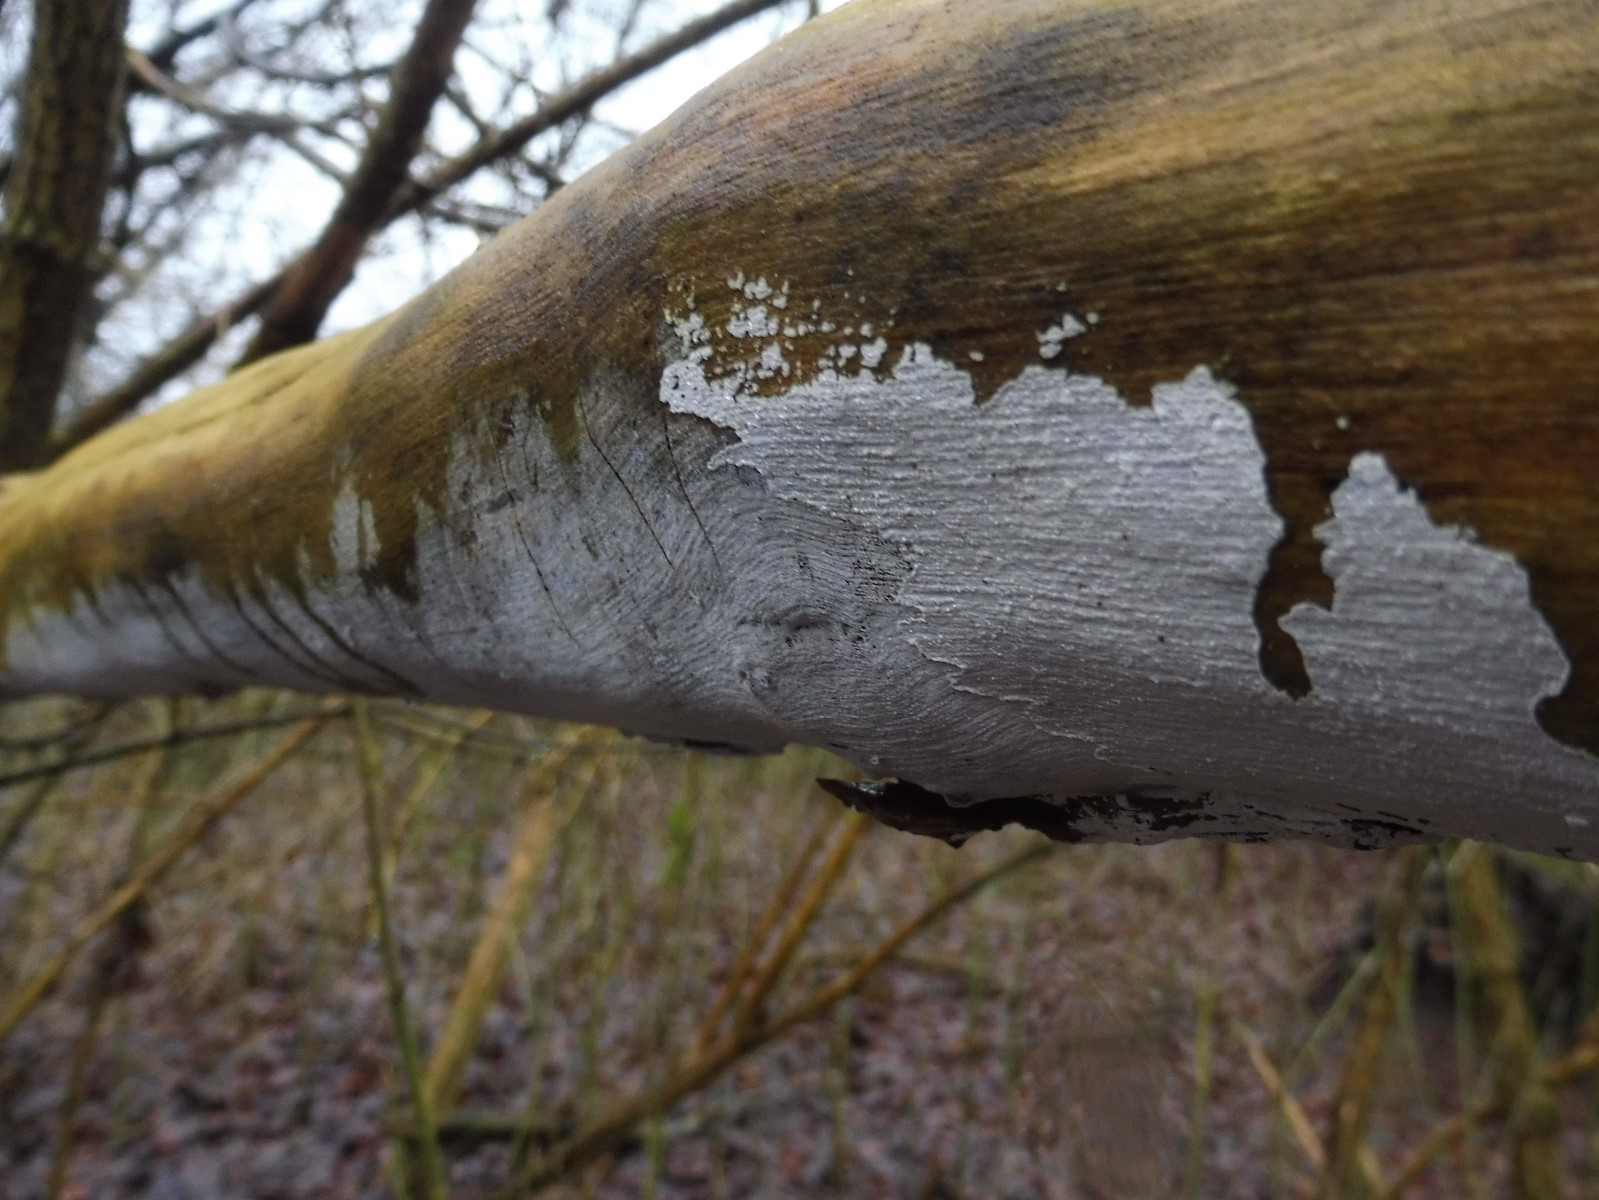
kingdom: Fungi
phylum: Basidiomycota
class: Agaricomycetes
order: Corticiales
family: Corticiaceae
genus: Lyomyces
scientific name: Lyomyces sambuci
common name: almindelig hyldehinde
